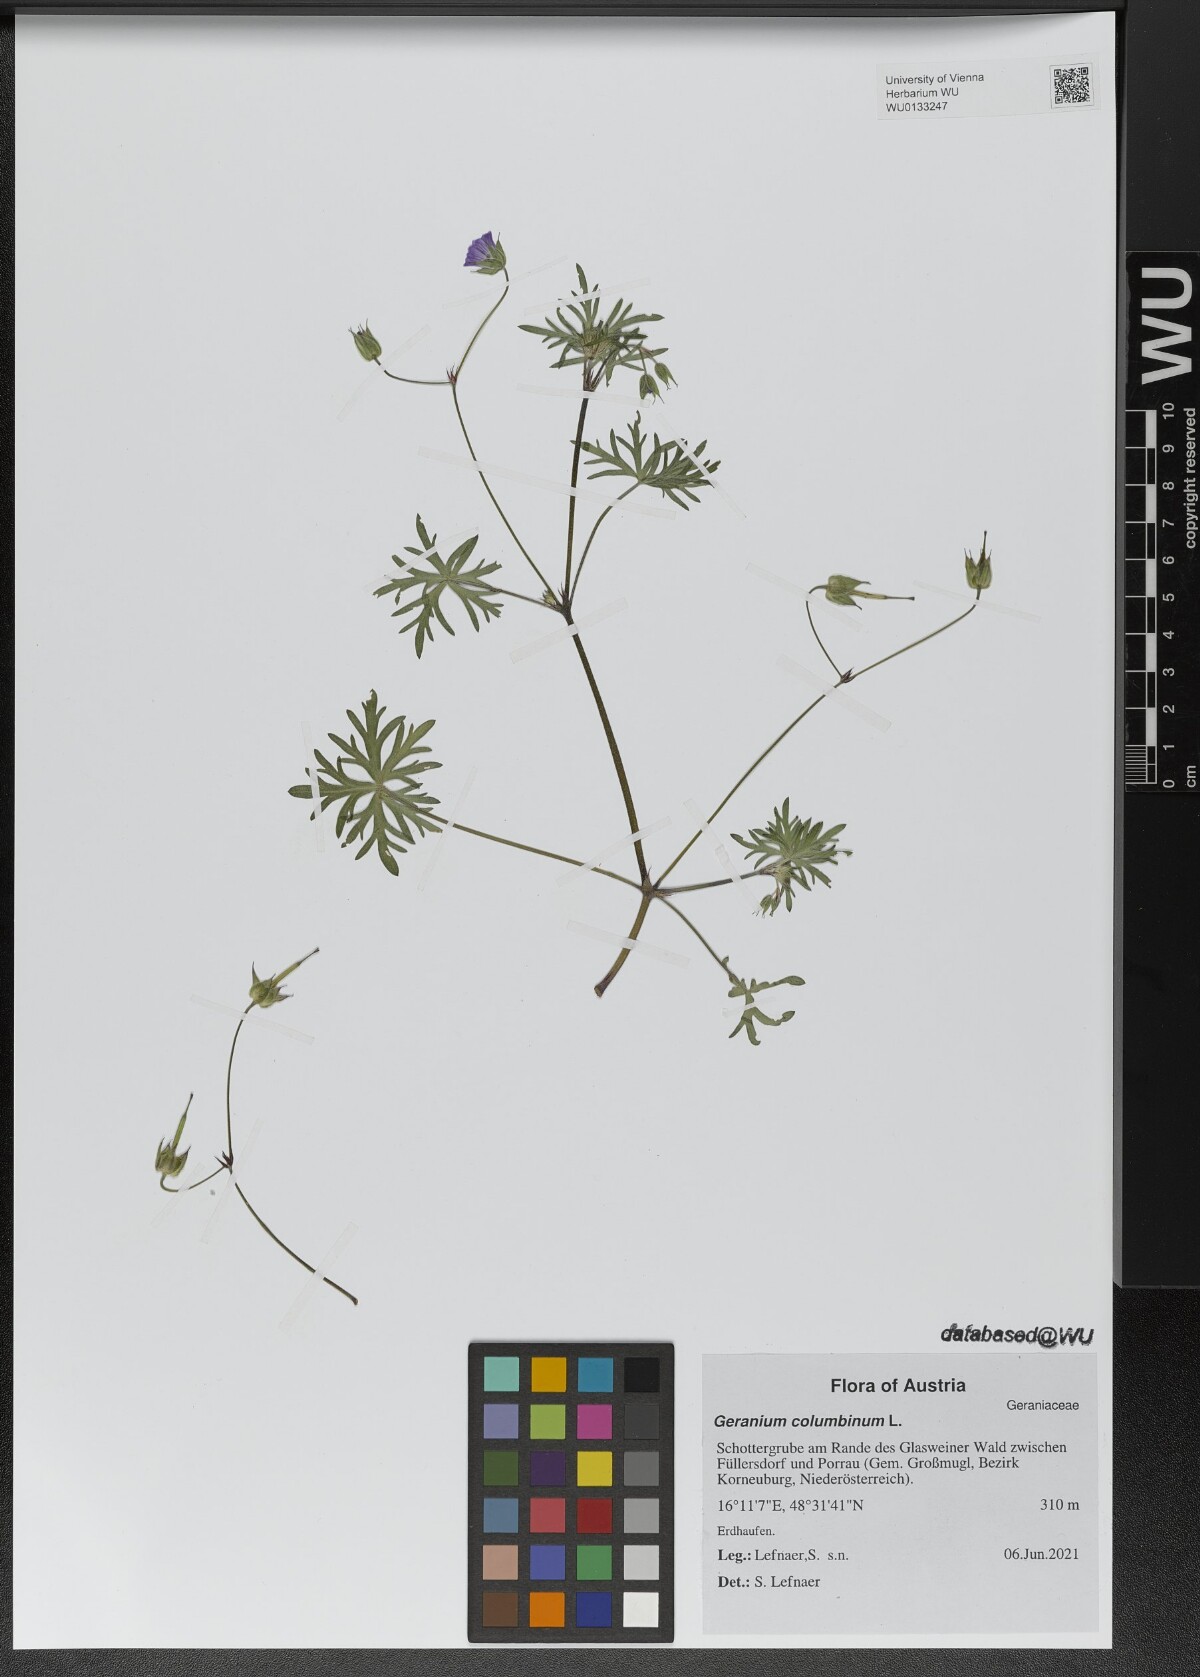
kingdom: Plantae
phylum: Tracheophyta
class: Magnoliopsida
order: Geraniales
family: Geraniaceae
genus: Geranium
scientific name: Geranium columbinum
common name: Long-stalked crane's-bill
